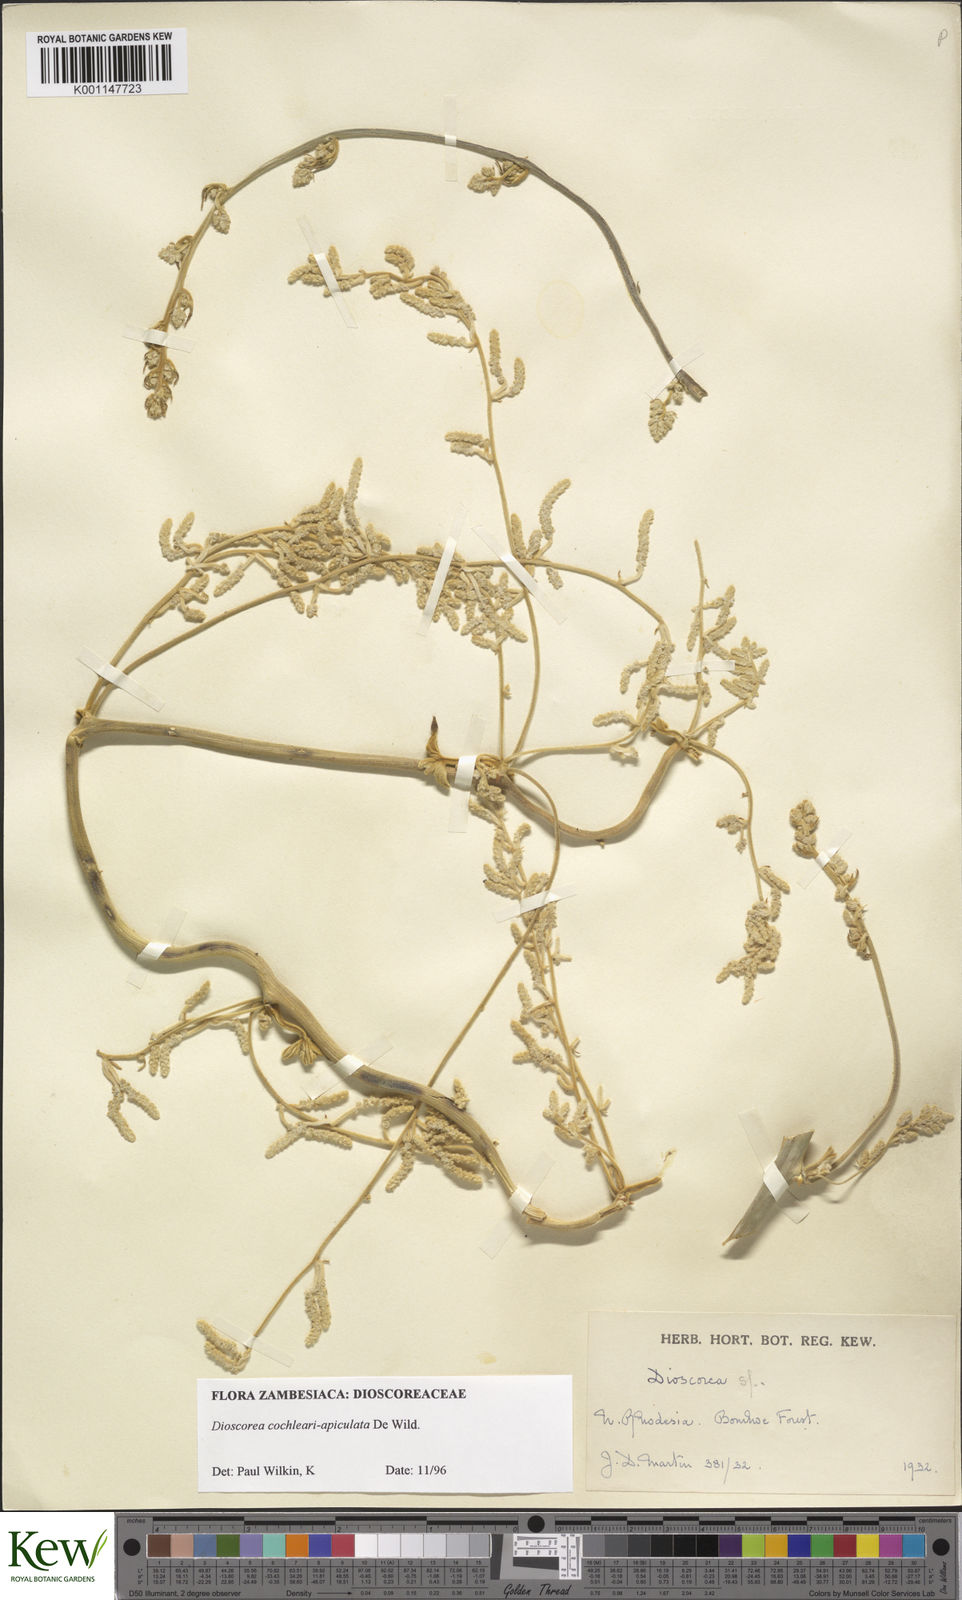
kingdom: Plantae
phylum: Tracheophyta
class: Liliopsida
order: Dioscoreales
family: Dioscoreaceae
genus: Dioscorea
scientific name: Dioscorea cochleariapiculata
